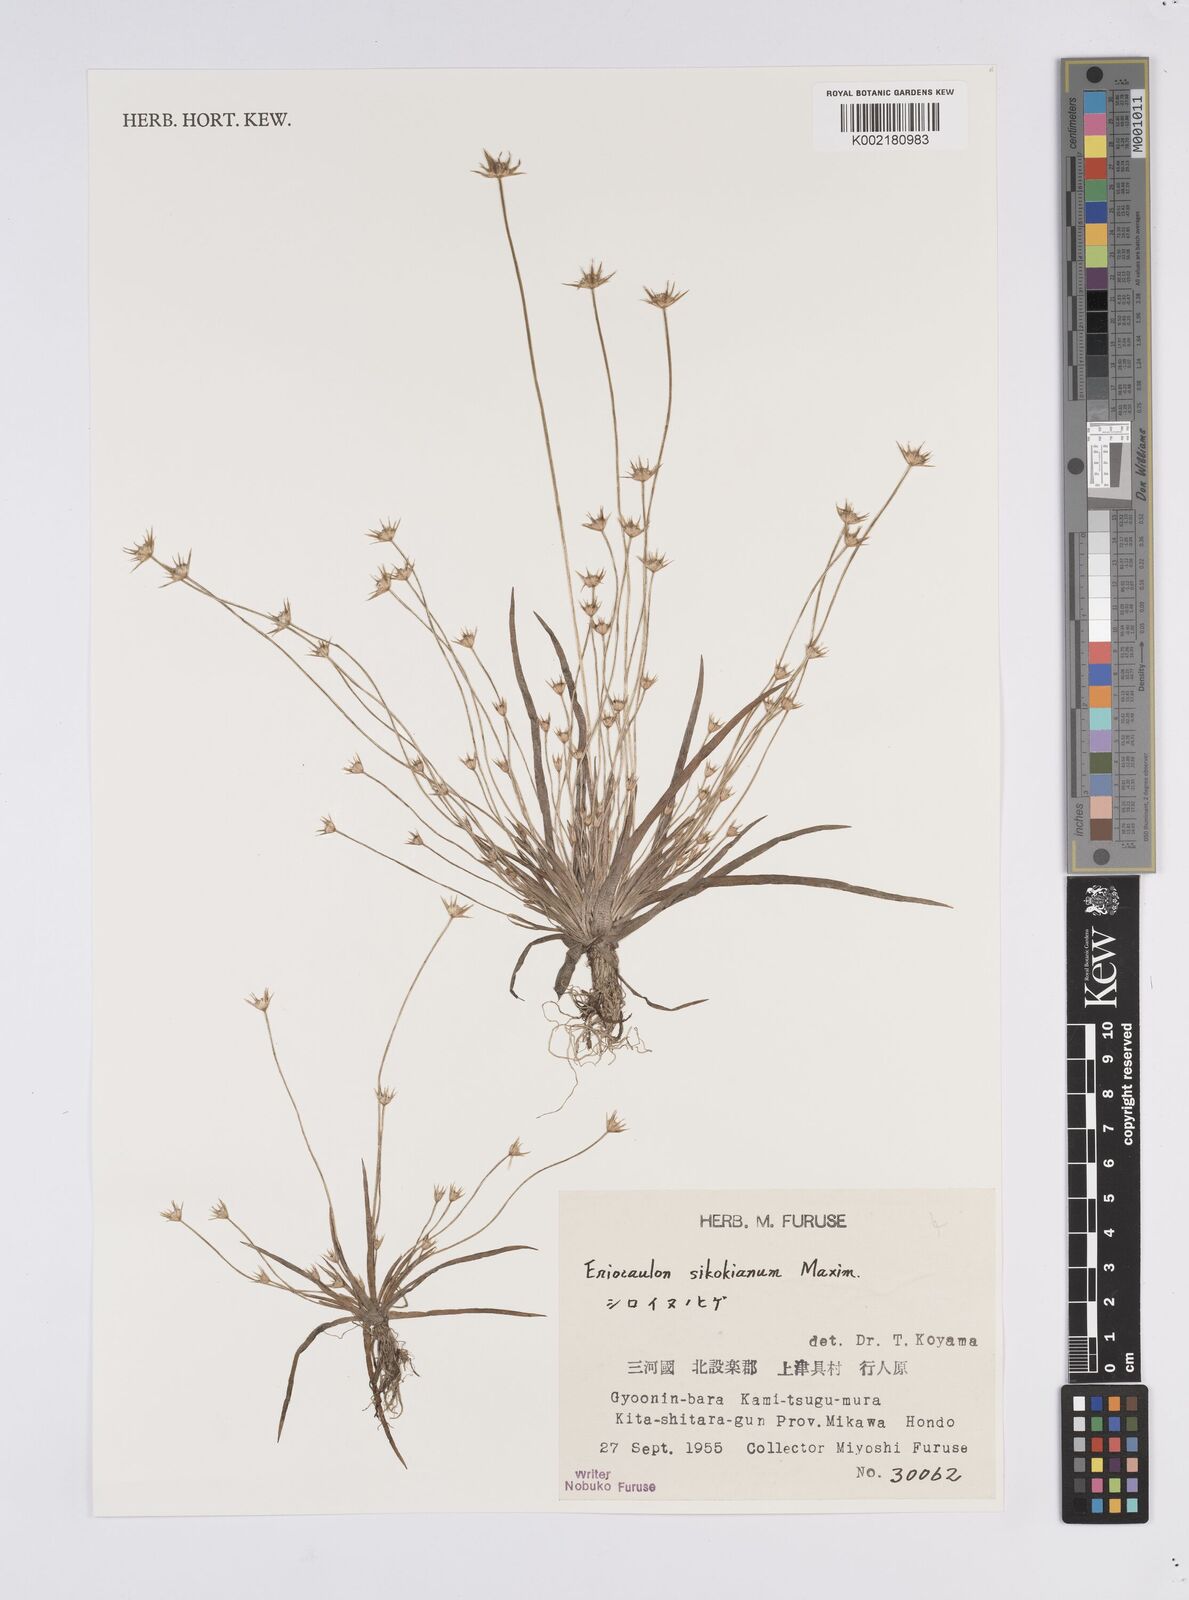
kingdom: Plantae
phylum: Tracheophyta
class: Liliopsida
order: Poales
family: Eriocaulaceae
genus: Eriocaulon
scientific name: Eriocaulon miquelianum
